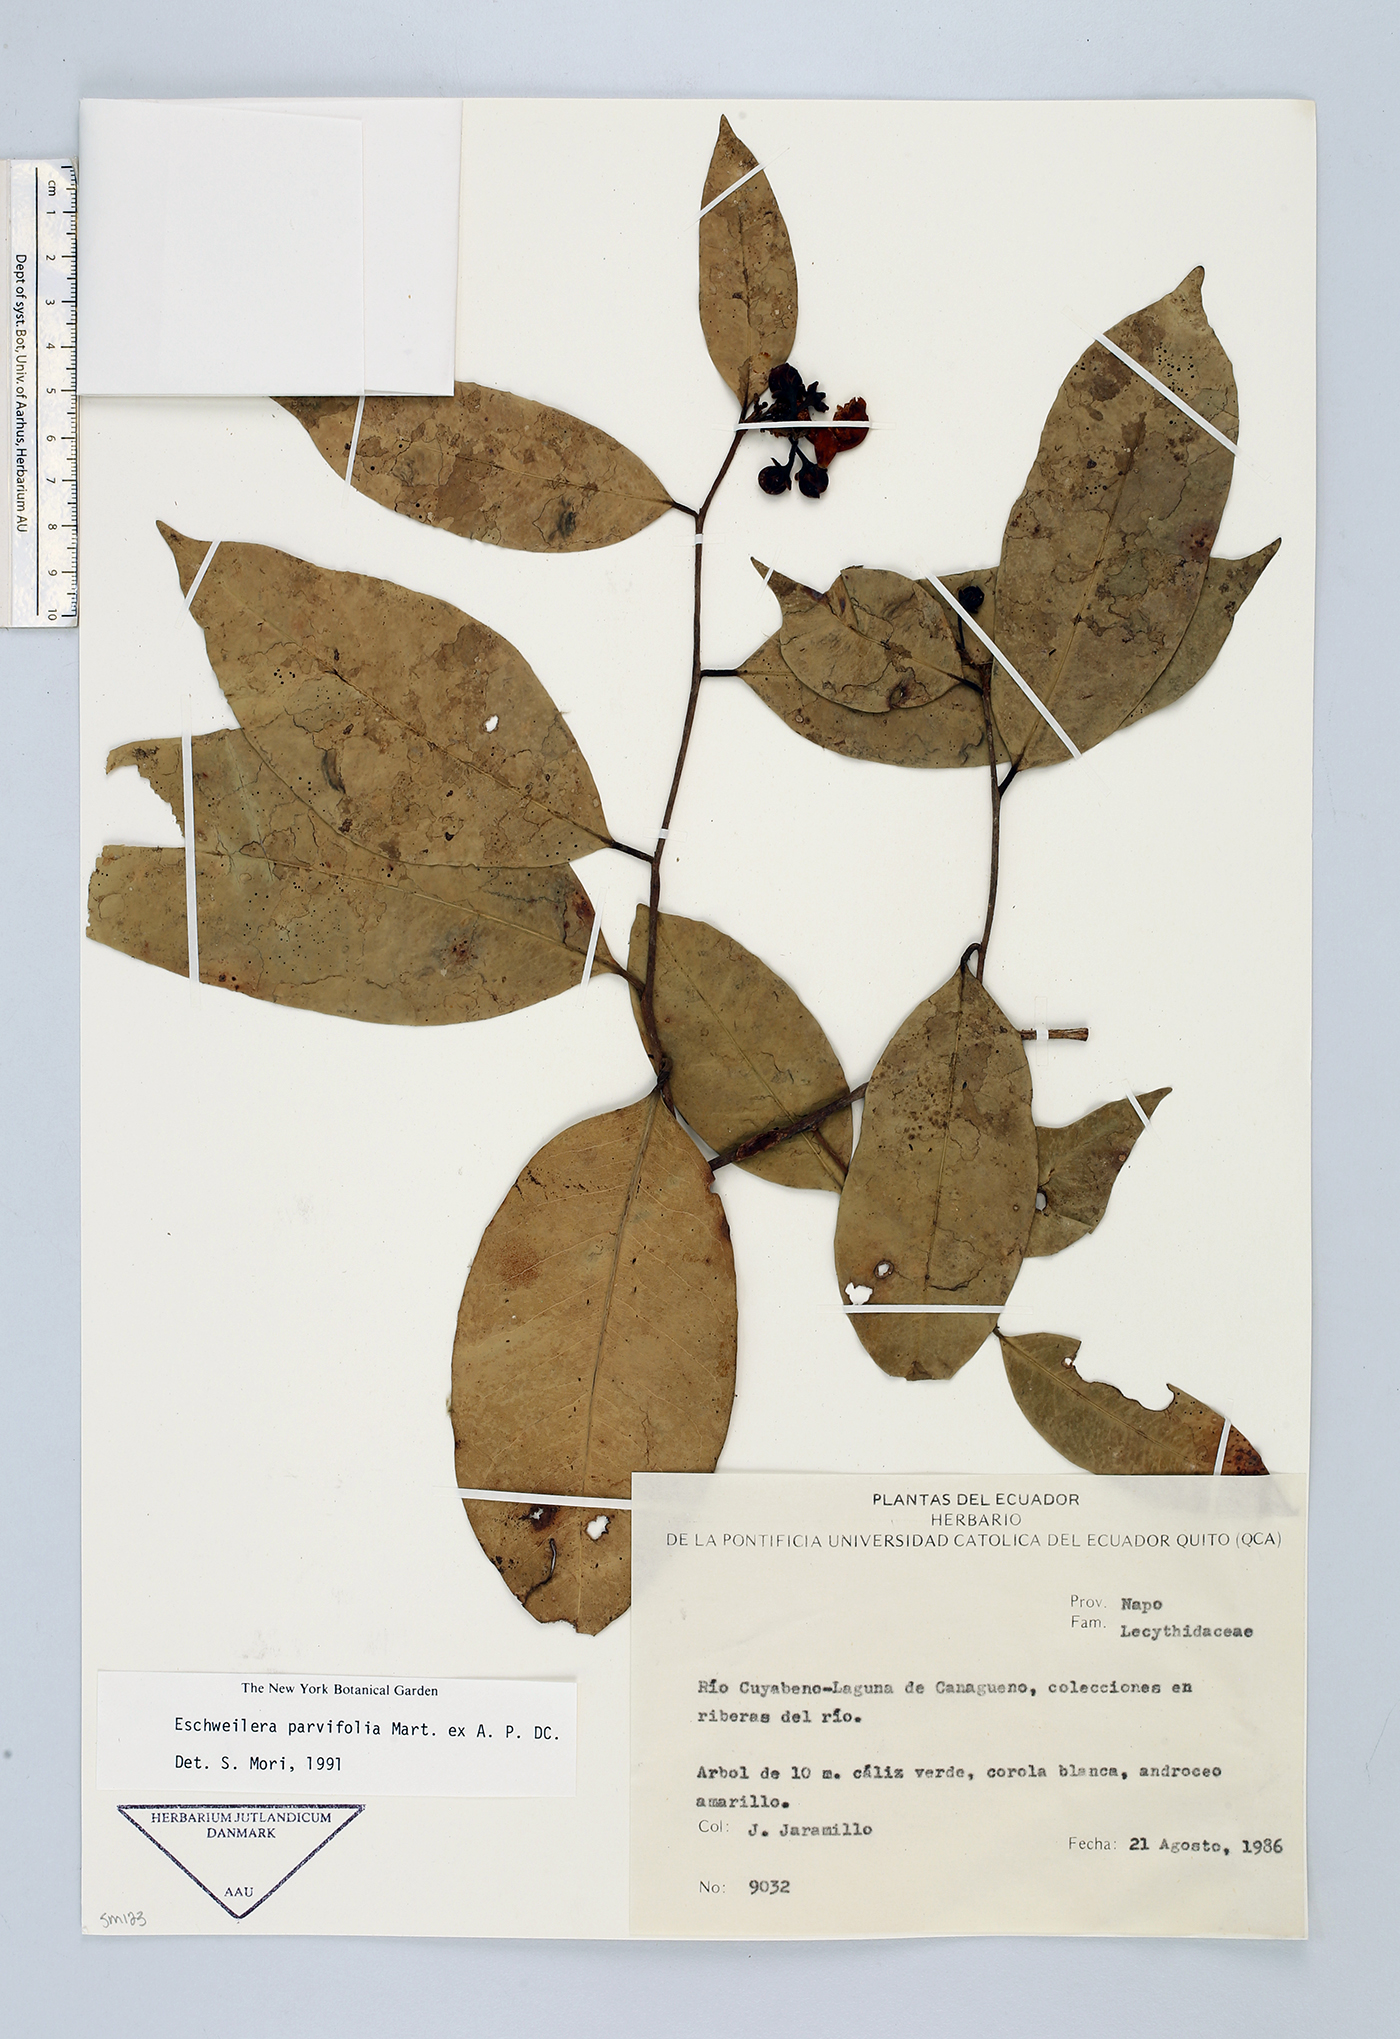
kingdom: Plantae
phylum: Tracheophyta
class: Magnoliopsida
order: Ericales
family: Lecythidaceae
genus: Eschweilera
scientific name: Eschweilera parvifolia
